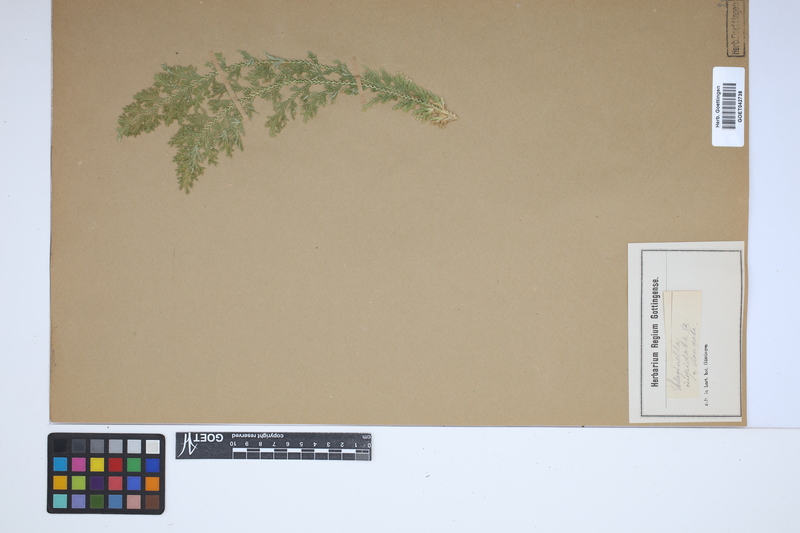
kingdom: Plantae
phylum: Tracheophyta
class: Lycopodiopsida
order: Selaginellales
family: Selaginellaceae
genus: Selaginella
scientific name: Selaginella pallescens
